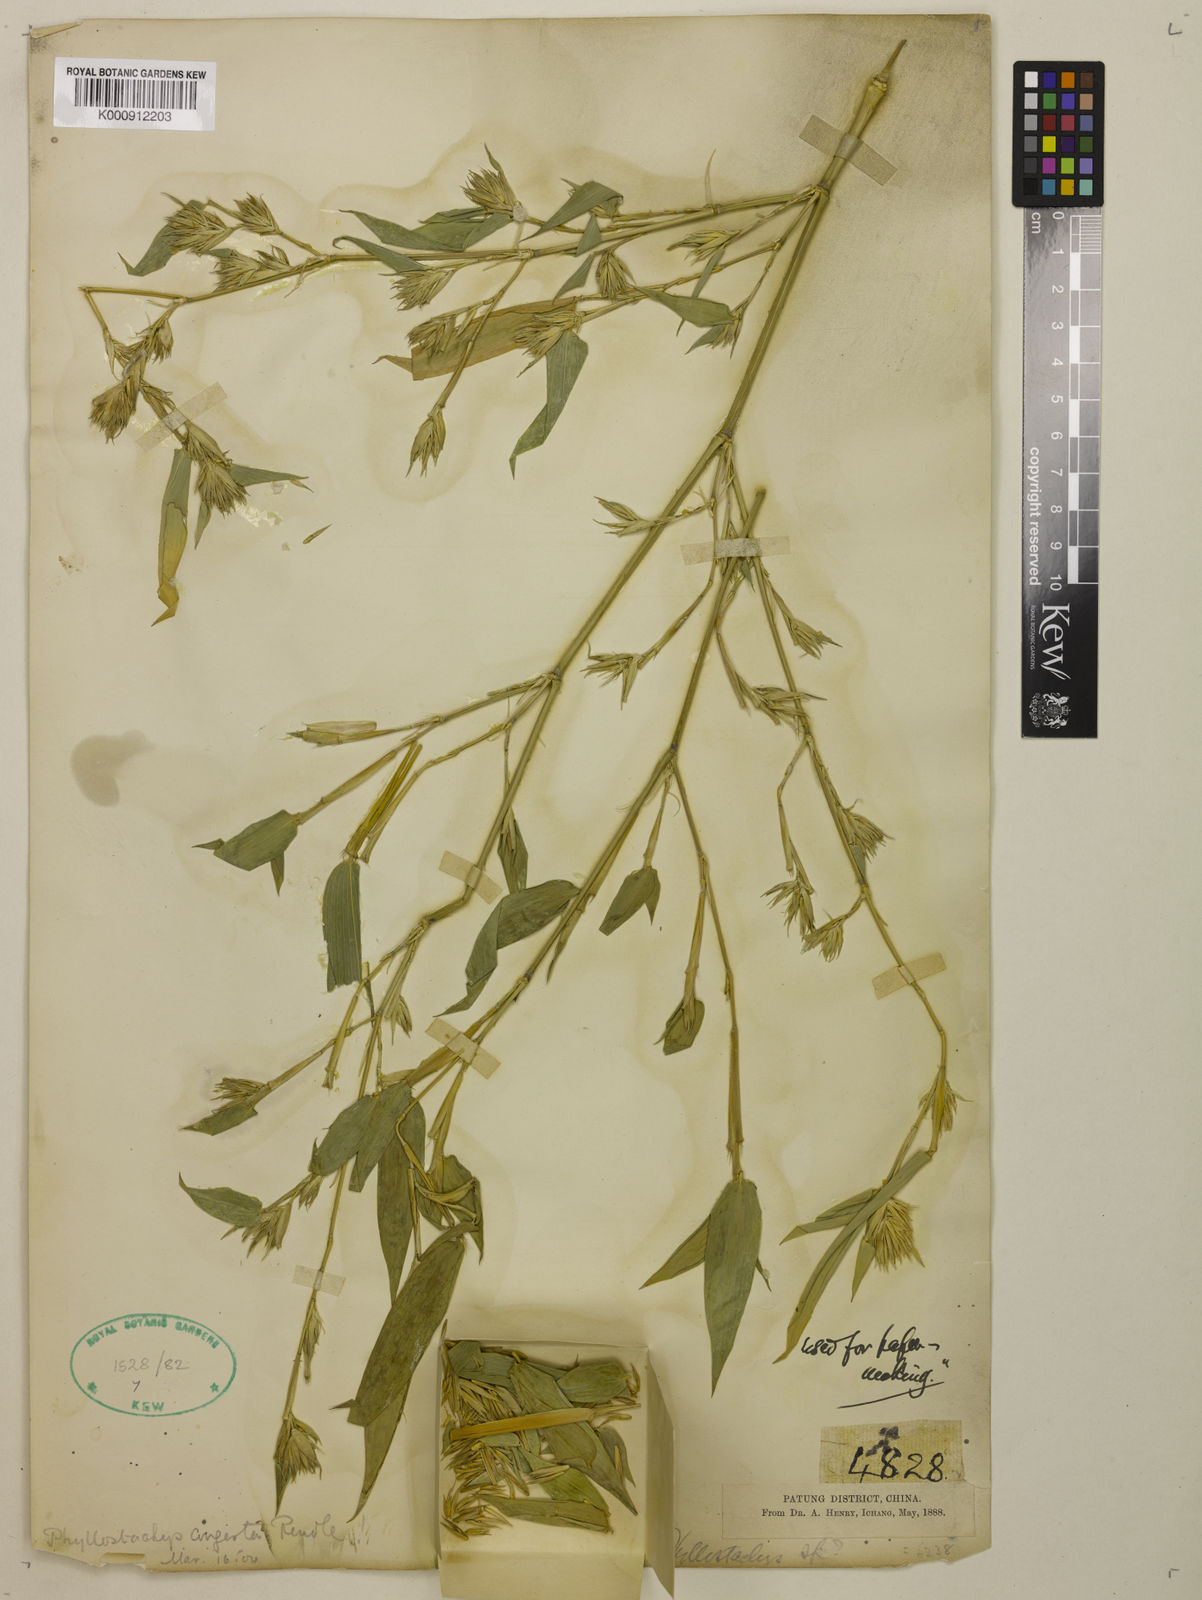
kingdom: Plantae
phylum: Tracheophyta
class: Liliopsida
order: Poales
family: Poaceae
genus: Phyllostachys
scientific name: Phyllostachys heteroclada
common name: Fishscale bamboo
